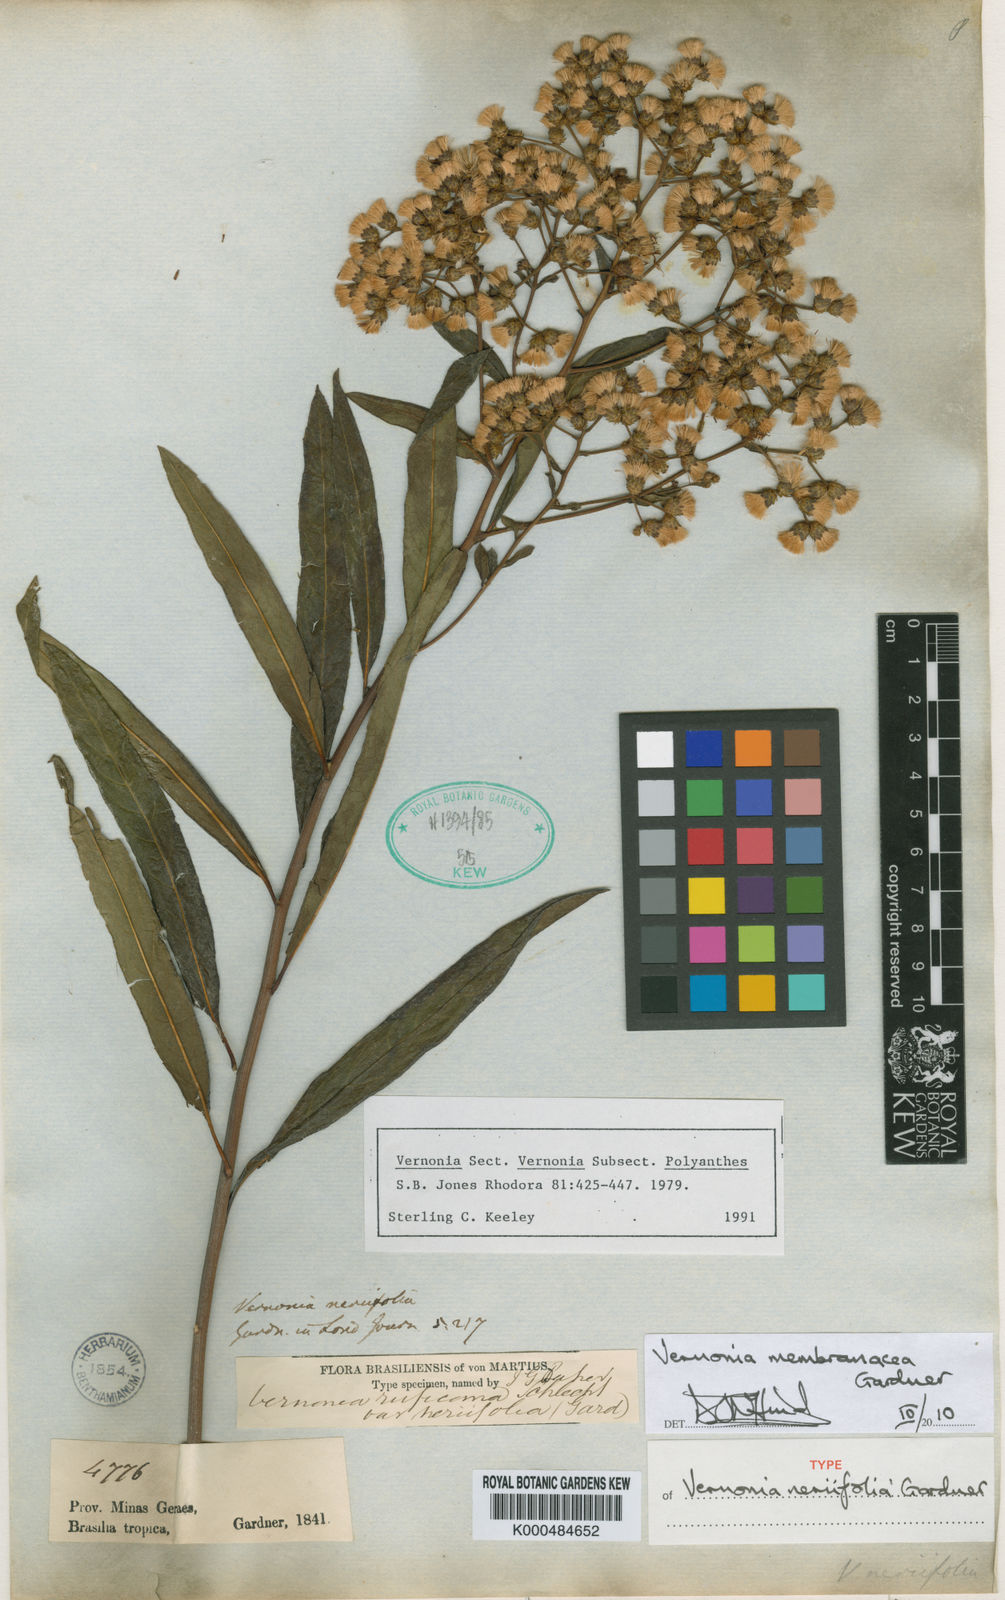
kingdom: Plantae
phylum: Tracheophyta
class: Magnoliopsida
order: Asterales
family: Asteraceae
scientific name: Asteraceae
